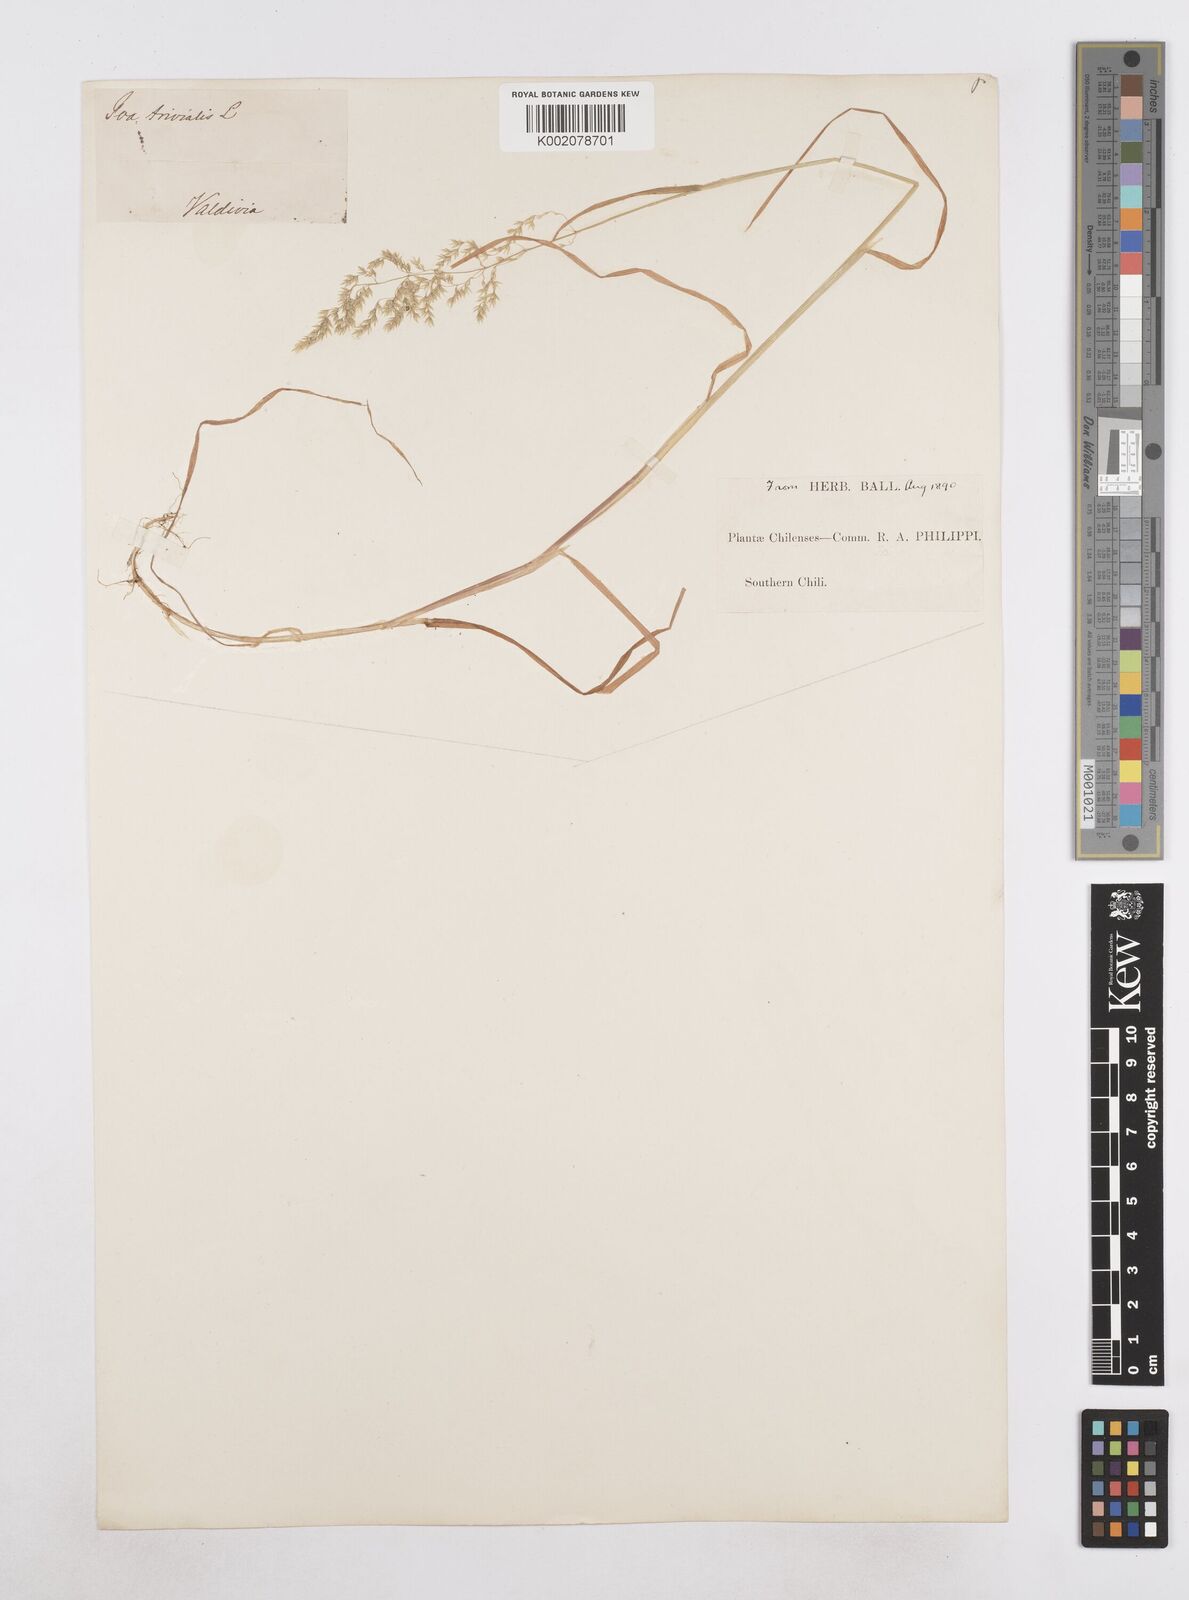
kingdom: Plantae
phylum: Tracheophyta
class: Liliopsida
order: Poales
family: Poaceae
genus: Poa
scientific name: Poa trivialis
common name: Rough bluegrass
